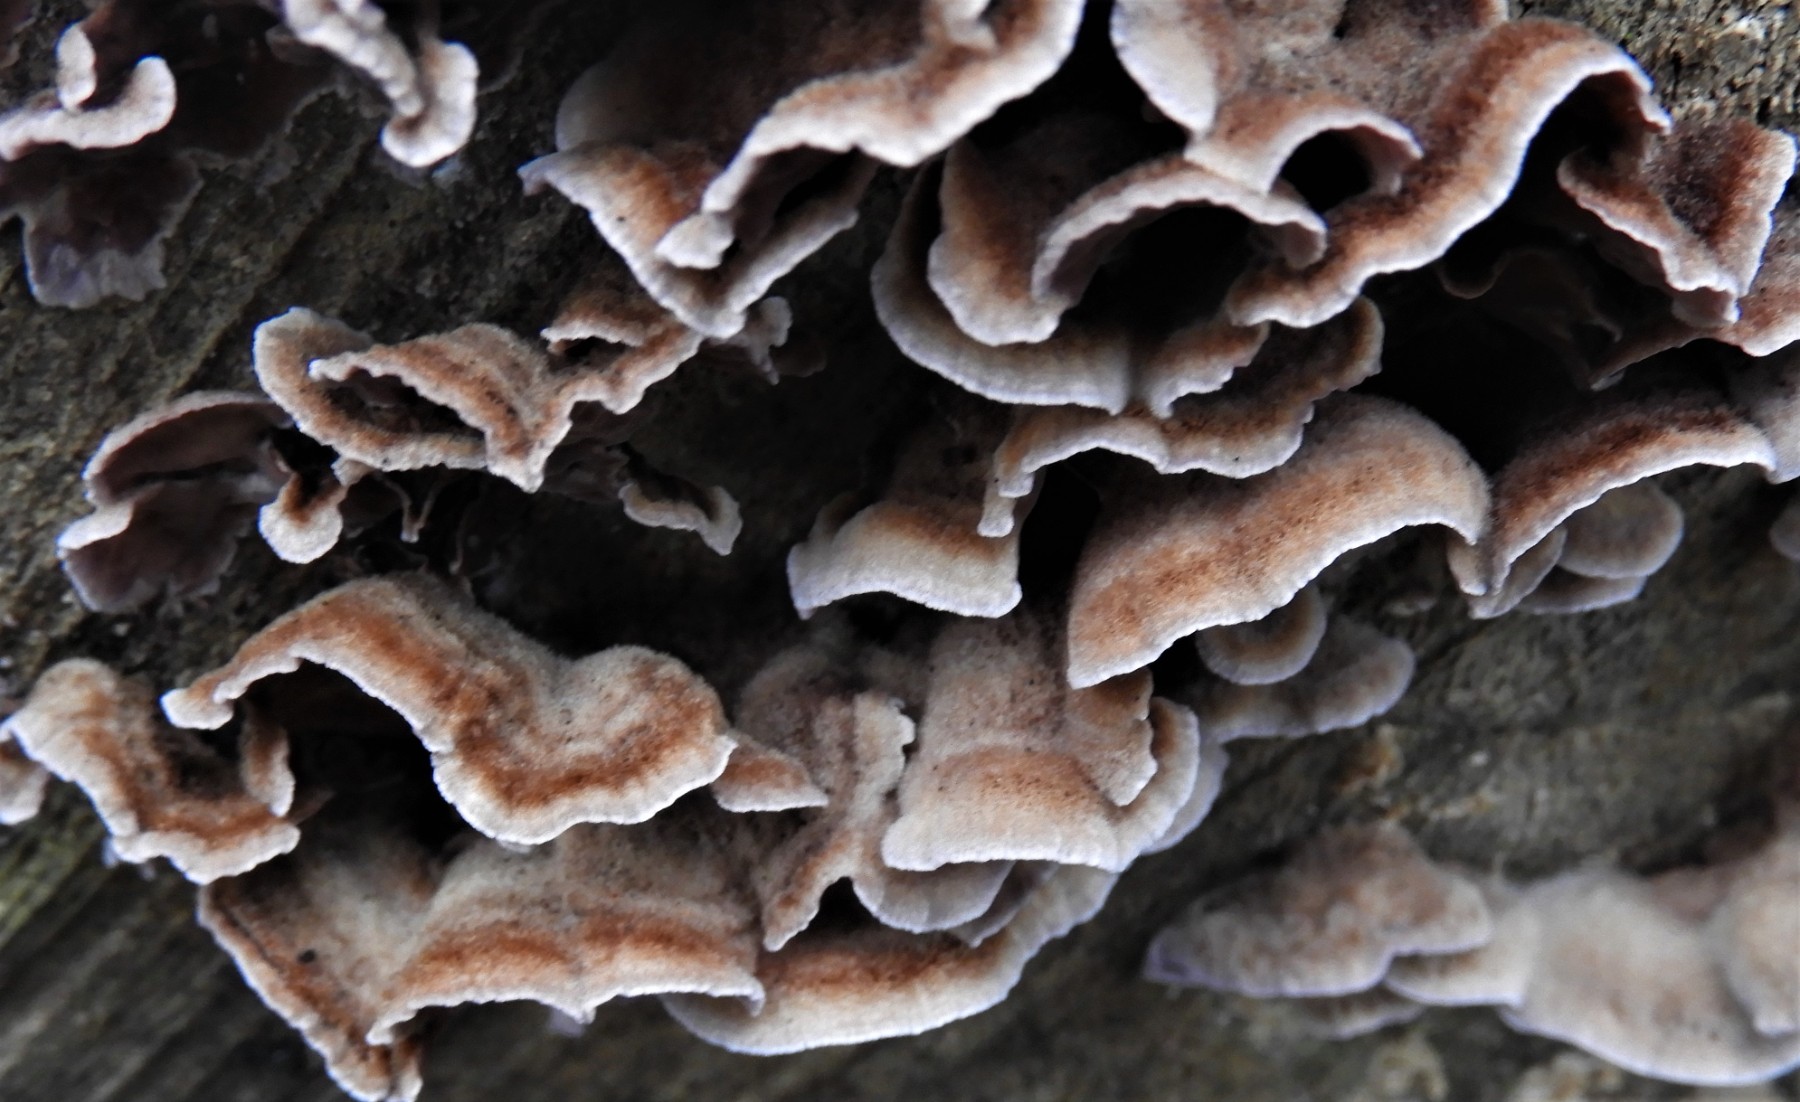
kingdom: Fungi
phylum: Basidiomycota
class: Agaricomycetes
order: Agaricales
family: Cyphellaceae
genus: Chondrostereum
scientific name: Chondrostereum purpureum
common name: purpurlædersvamp
